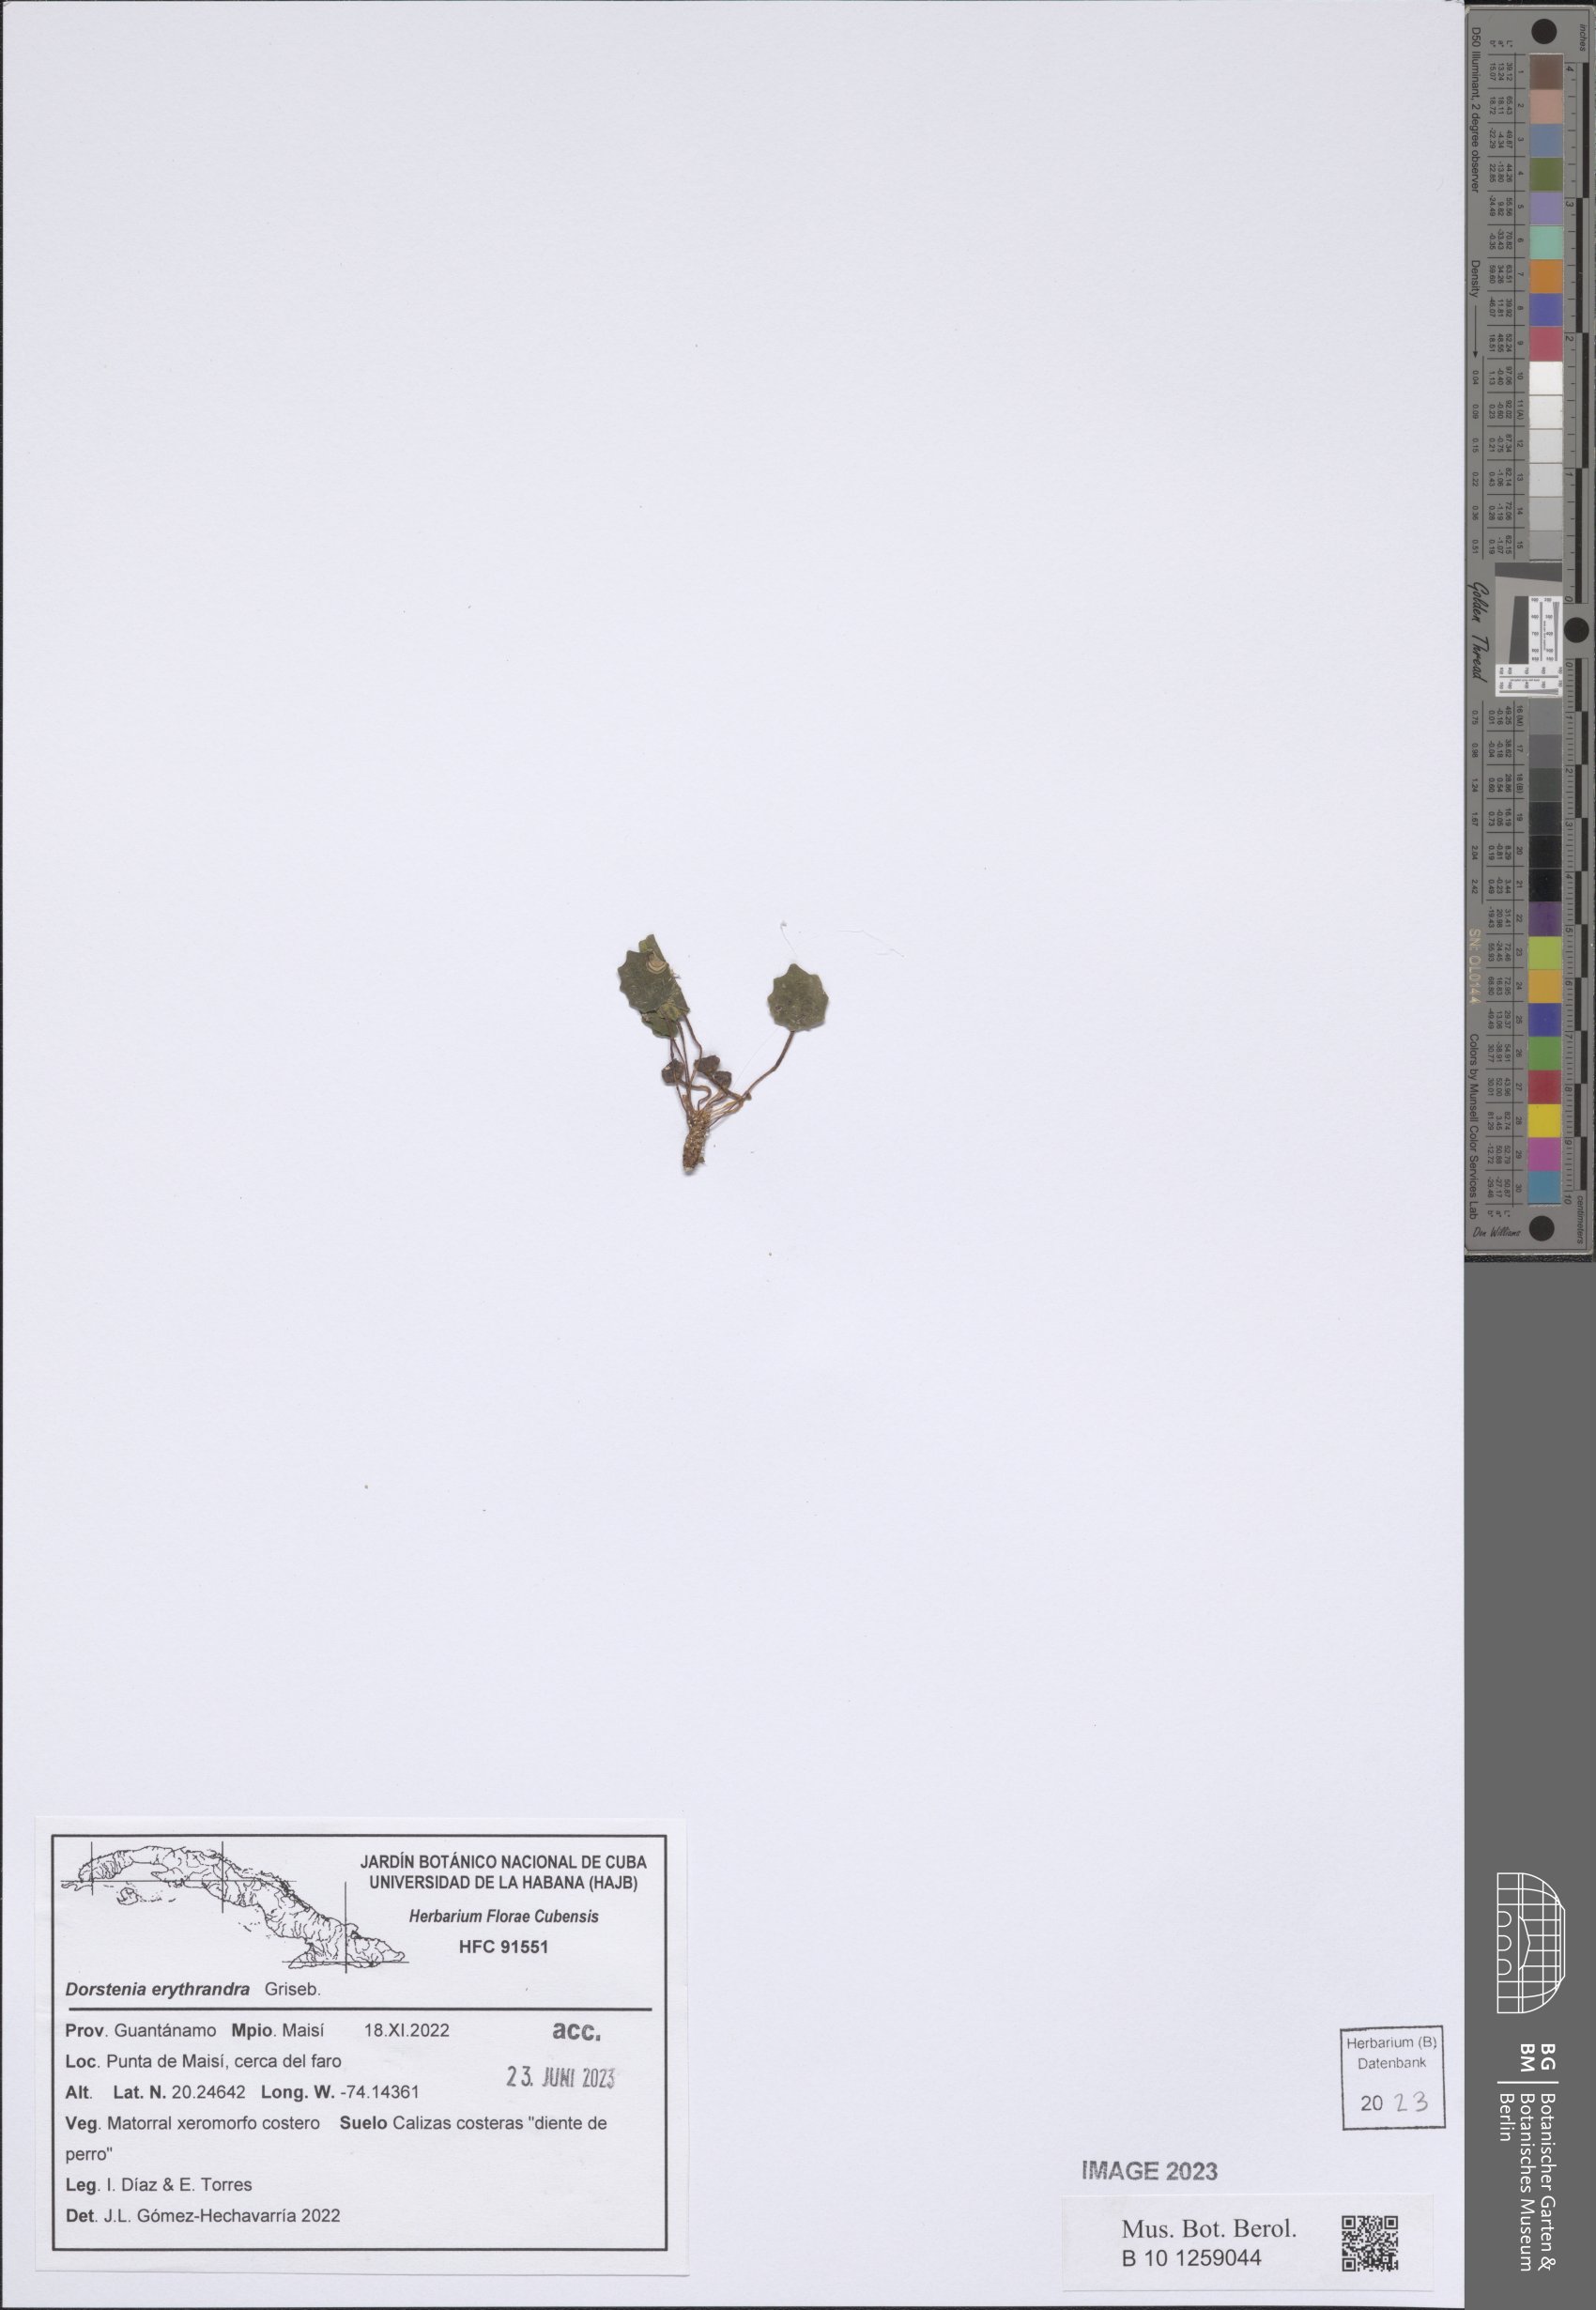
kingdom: Plantae
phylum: Tracheophyta
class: Magnoliopsida
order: Rosales
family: Moraceae
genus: Dorstenia
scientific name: Dorstenia erythrandra
